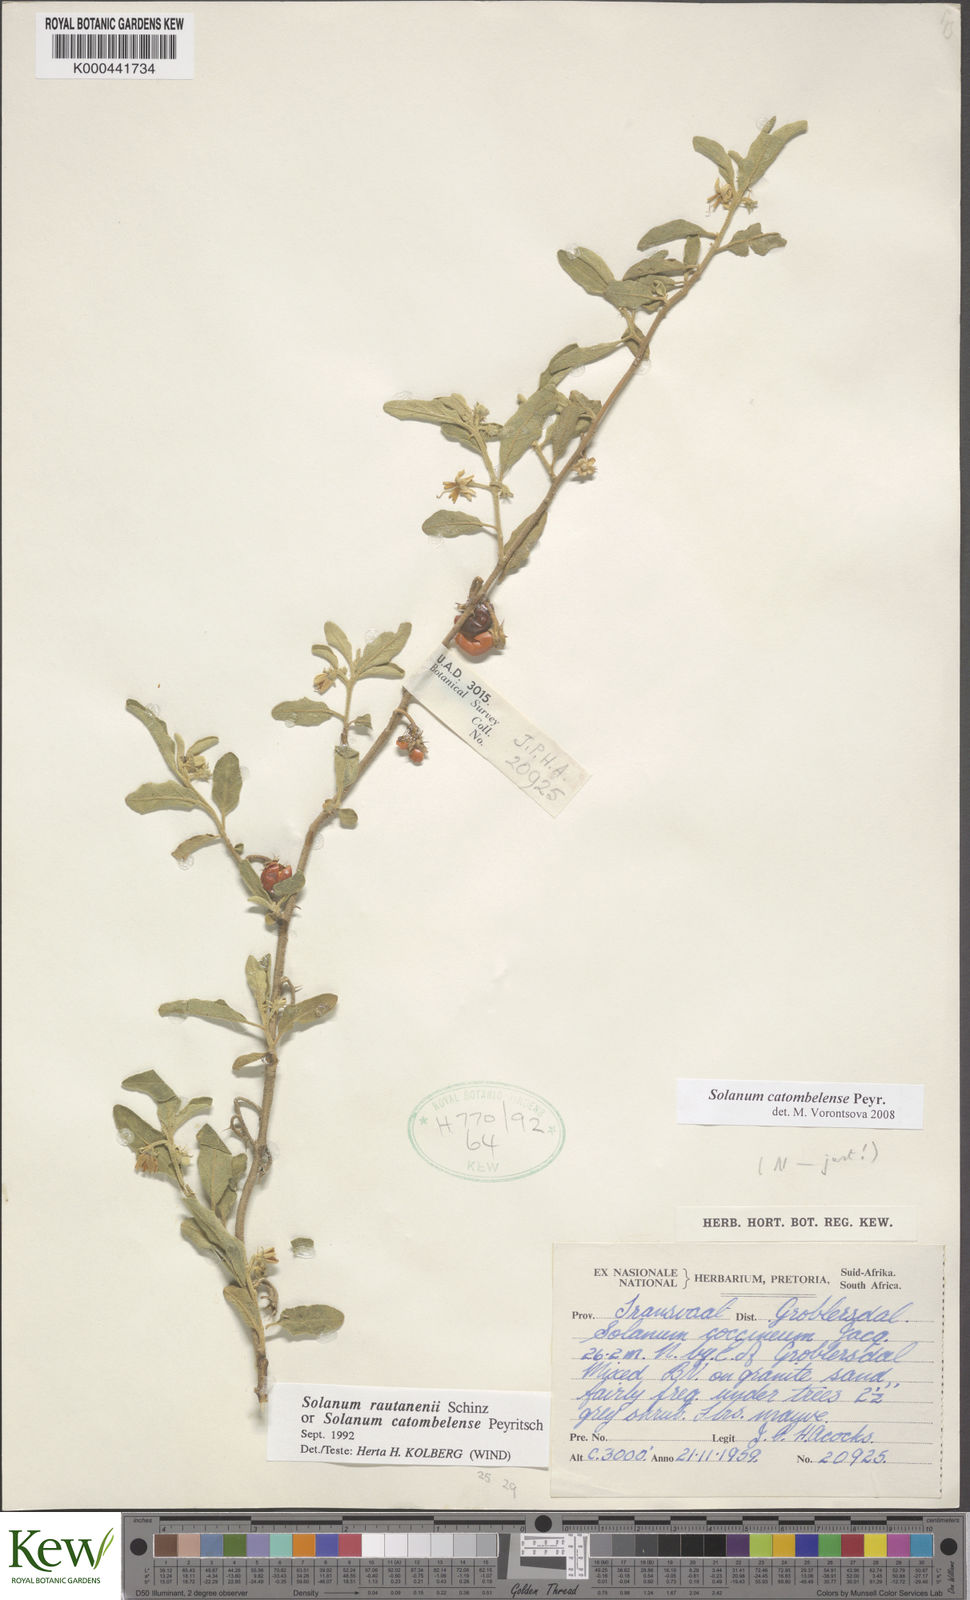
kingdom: Plantae
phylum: Tracheophyta
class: Magnoliopsida
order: Solanales
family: Solanaceae
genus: Solanum
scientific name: Solanum catombelense
